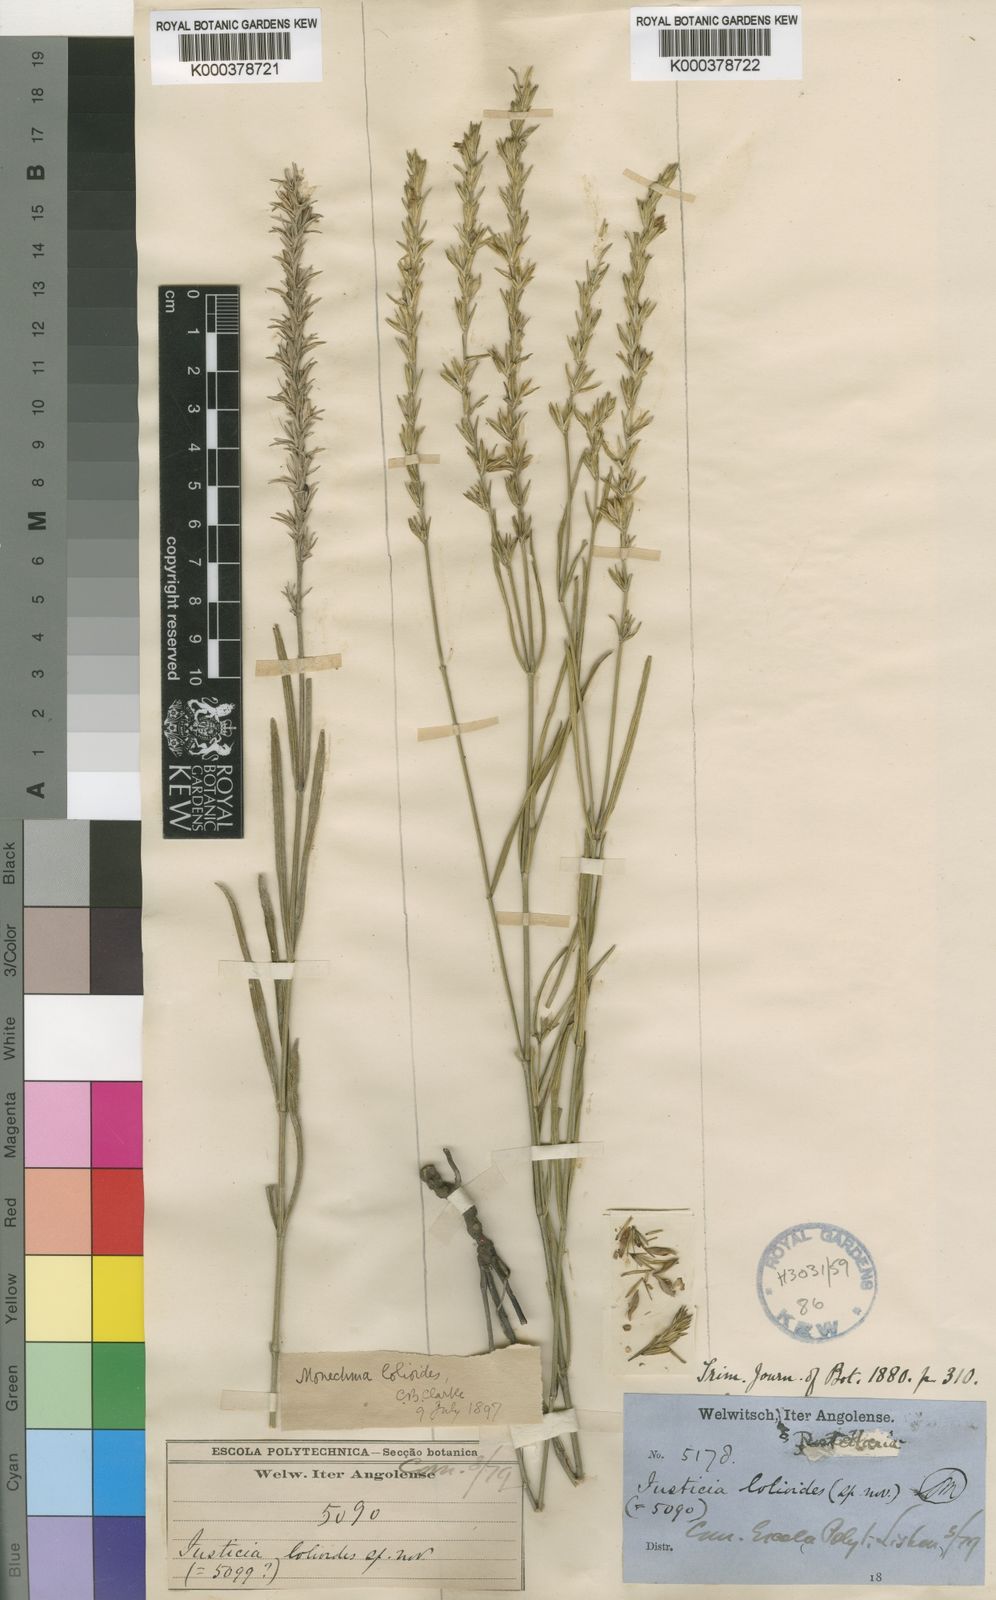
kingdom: Plantae
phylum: Tracheophyta
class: Magnoliopsida
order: Lamiales
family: Acanthaceae
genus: Monechma
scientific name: Monechma lolioides
